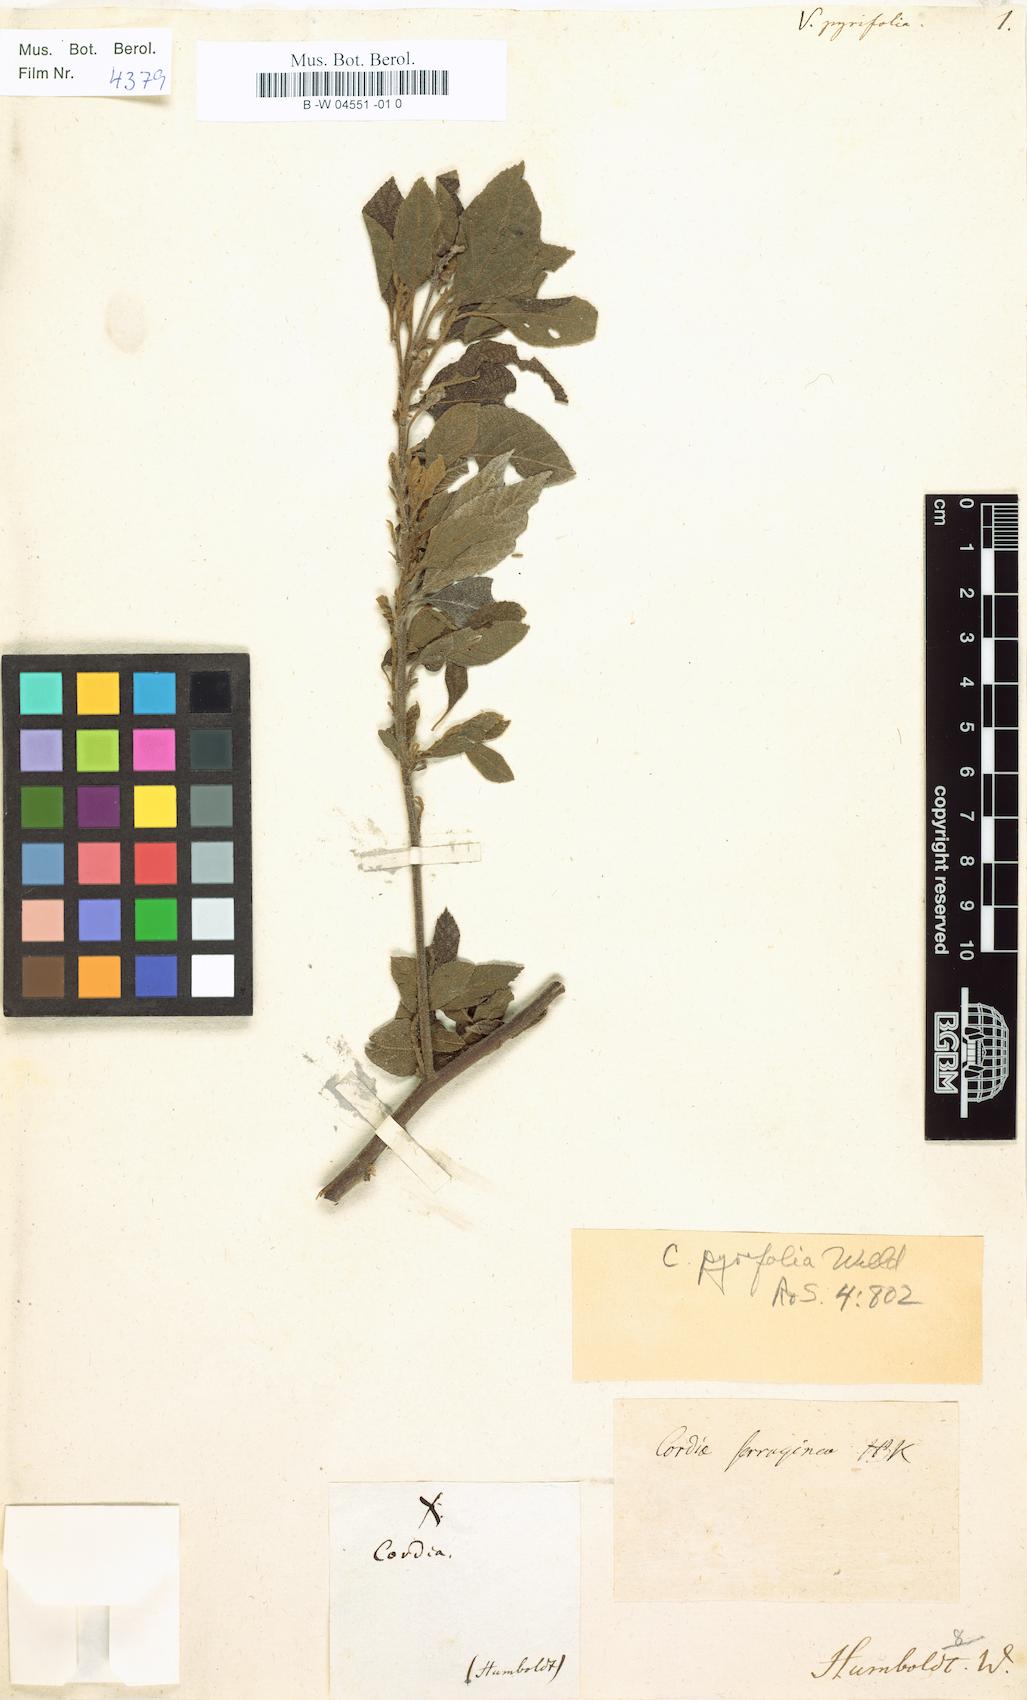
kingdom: Plantae
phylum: Tracheophyta
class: Magnoliopsida
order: Boraginales
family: Cordiaceae
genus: Varronia
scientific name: Varronia spinescens
